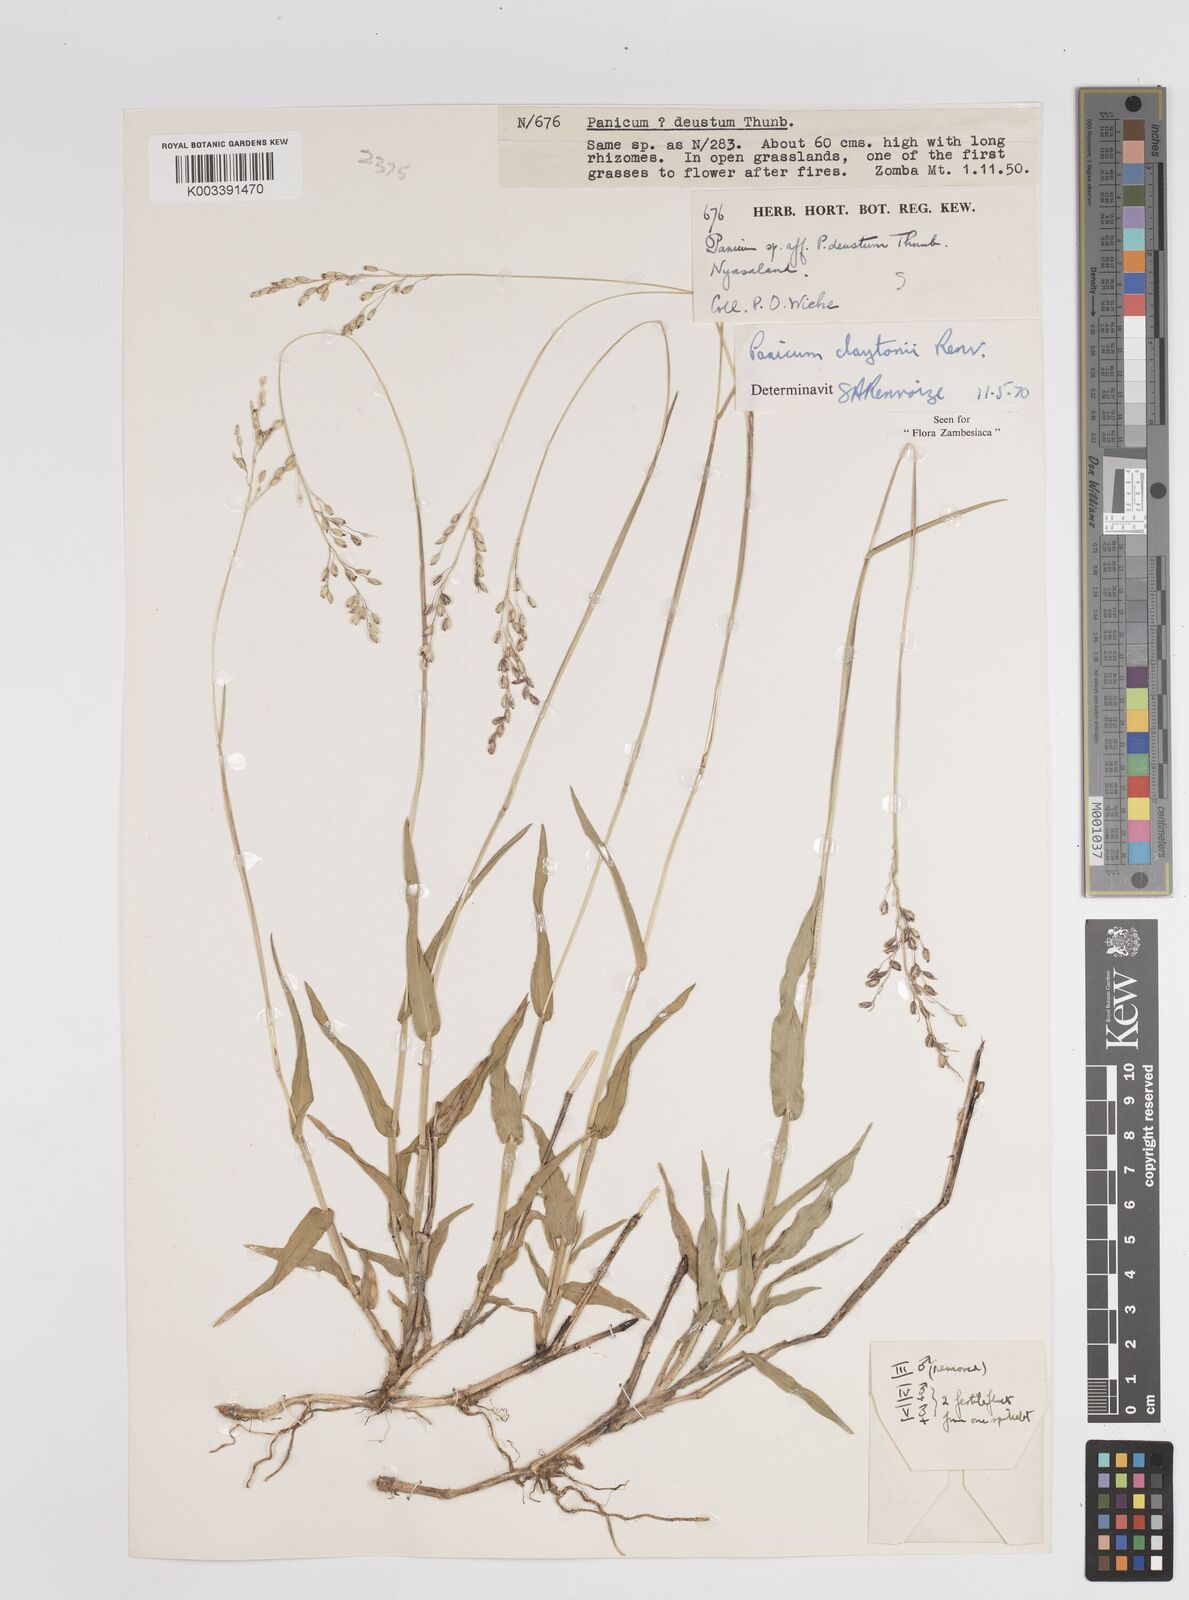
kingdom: Plantae
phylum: Tracheophyta
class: Liliopsida
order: Poales
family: Poaceae
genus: Adenochloa
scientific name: Adenochloa claytonii
